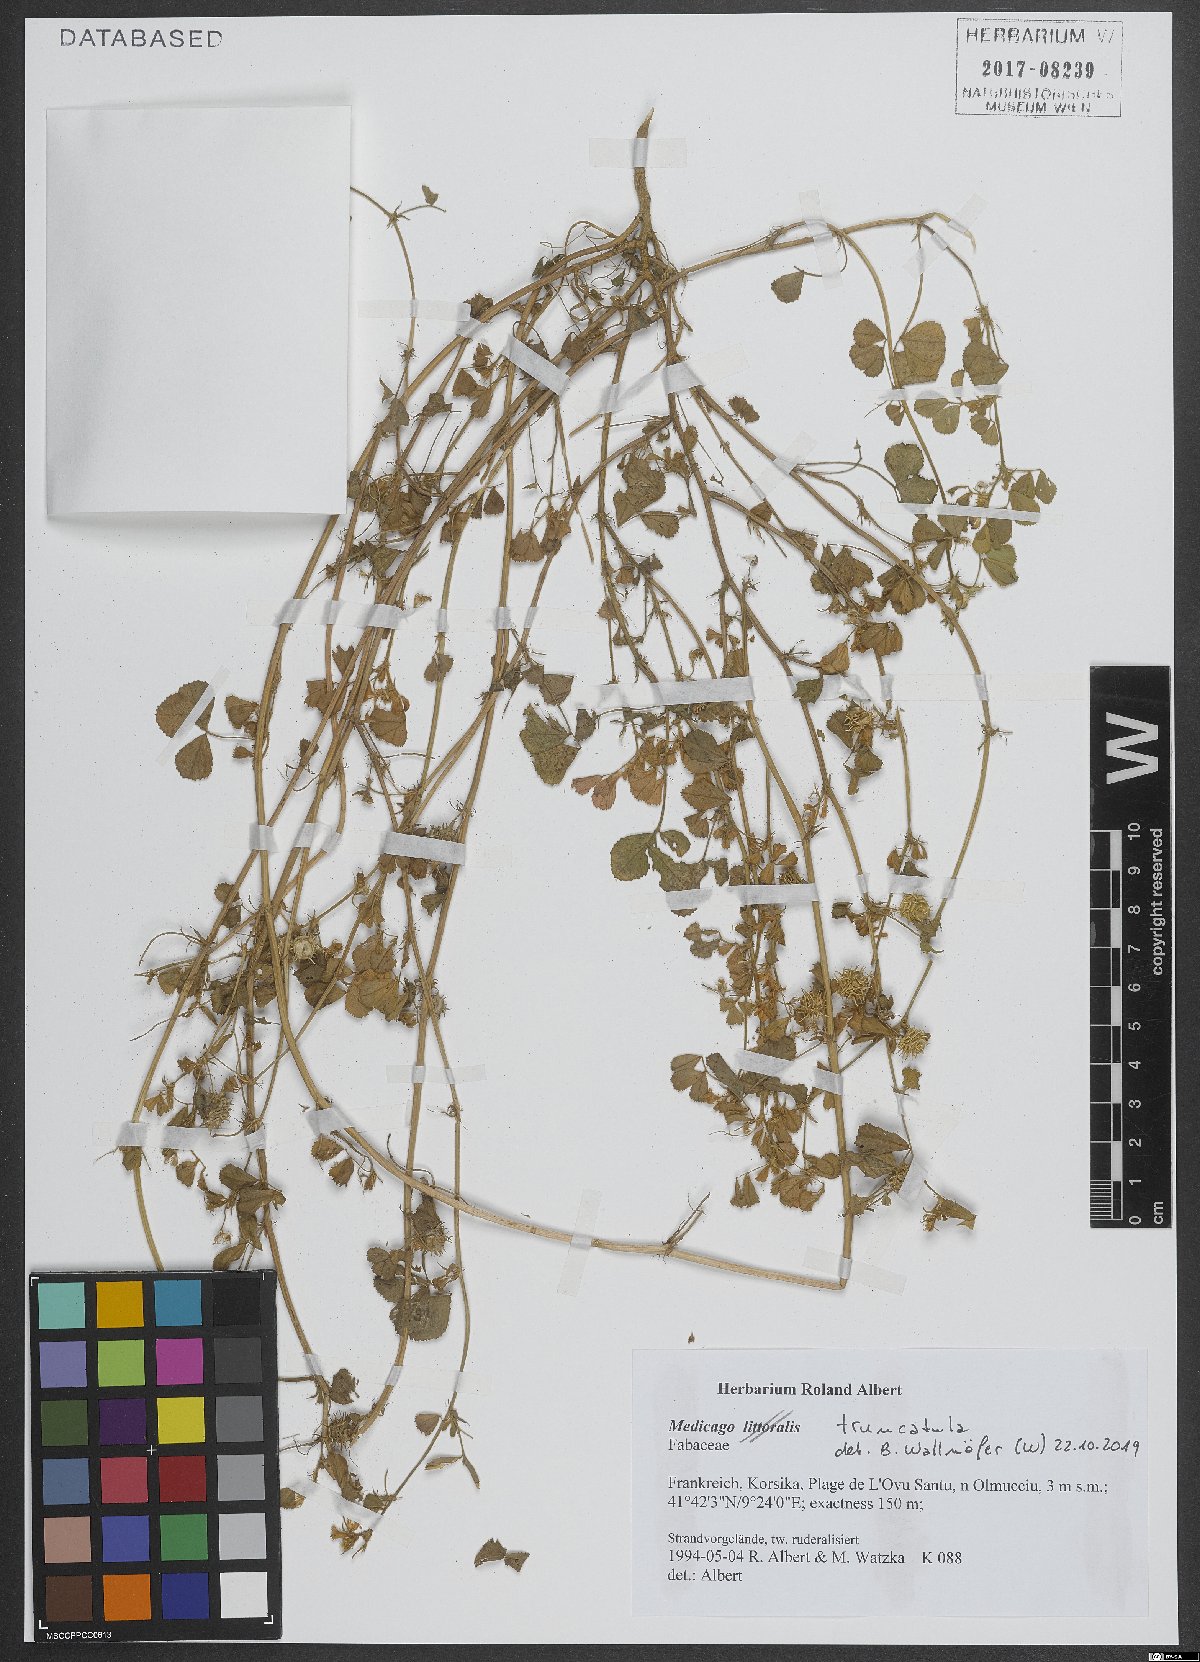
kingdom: Plantae
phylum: Tracheophyta
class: Magnoliopsida
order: Fabales
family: Fabaceae
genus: Medicago
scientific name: Medicago truncatula
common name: Strong-spined medick
